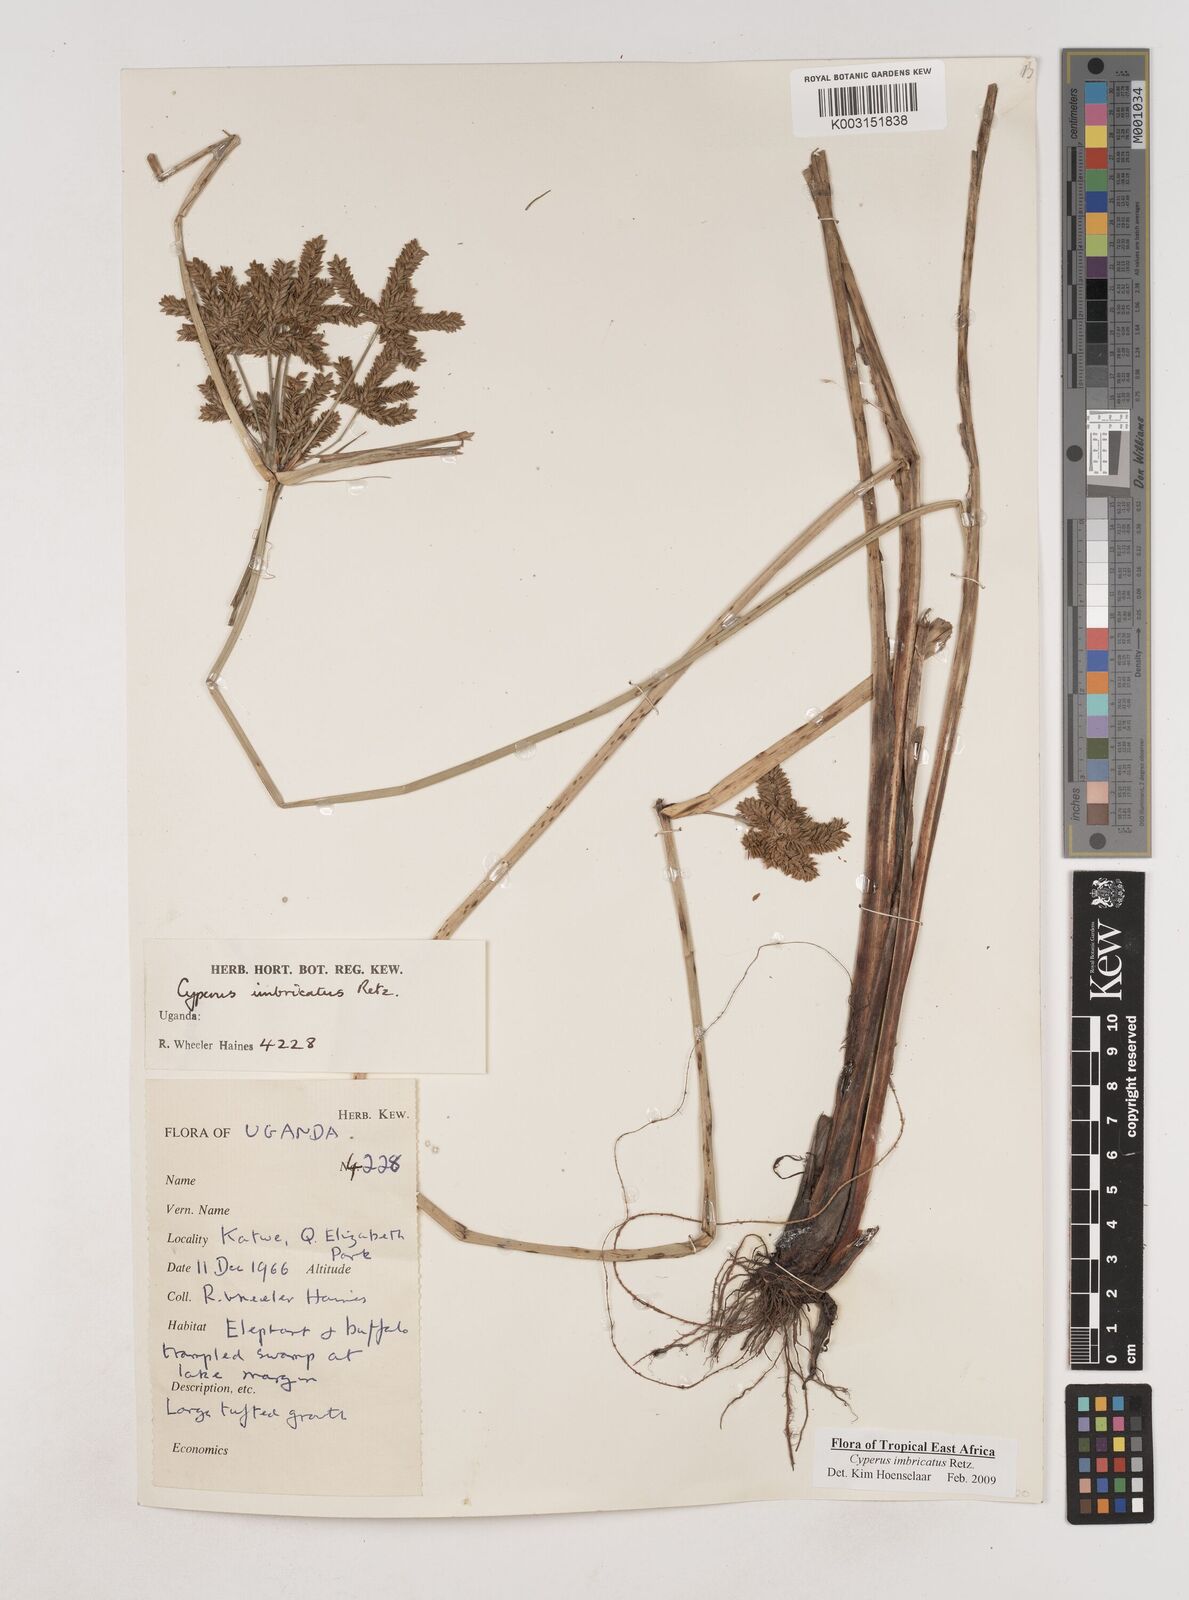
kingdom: Plantae
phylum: Tracheophyta
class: Liliopsida
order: Poales
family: Cyperaceae
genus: Cyperus
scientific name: Cyperus imbricatus
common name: Shingle flatsedge
